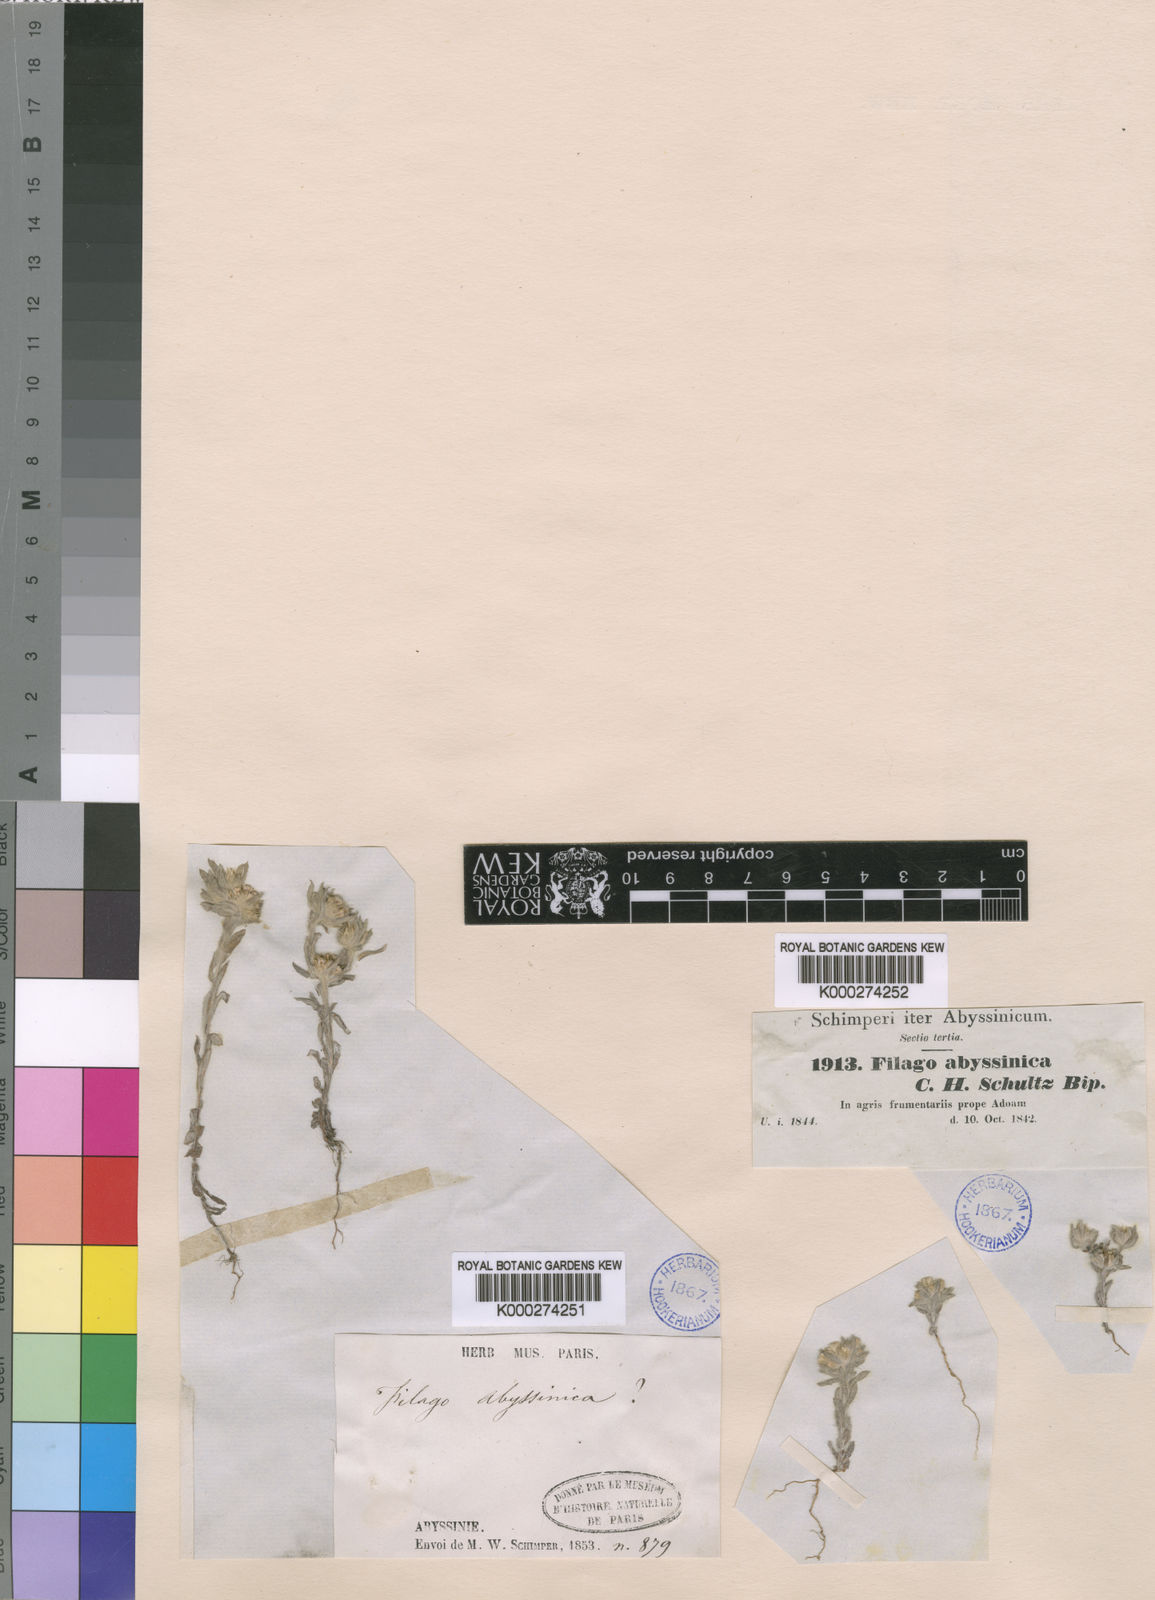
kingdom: Plantae
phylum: Tracheophyta
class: Magnoliopsida
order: Asterales
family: Asteraceae
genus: Filago
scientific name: Filago germanica
